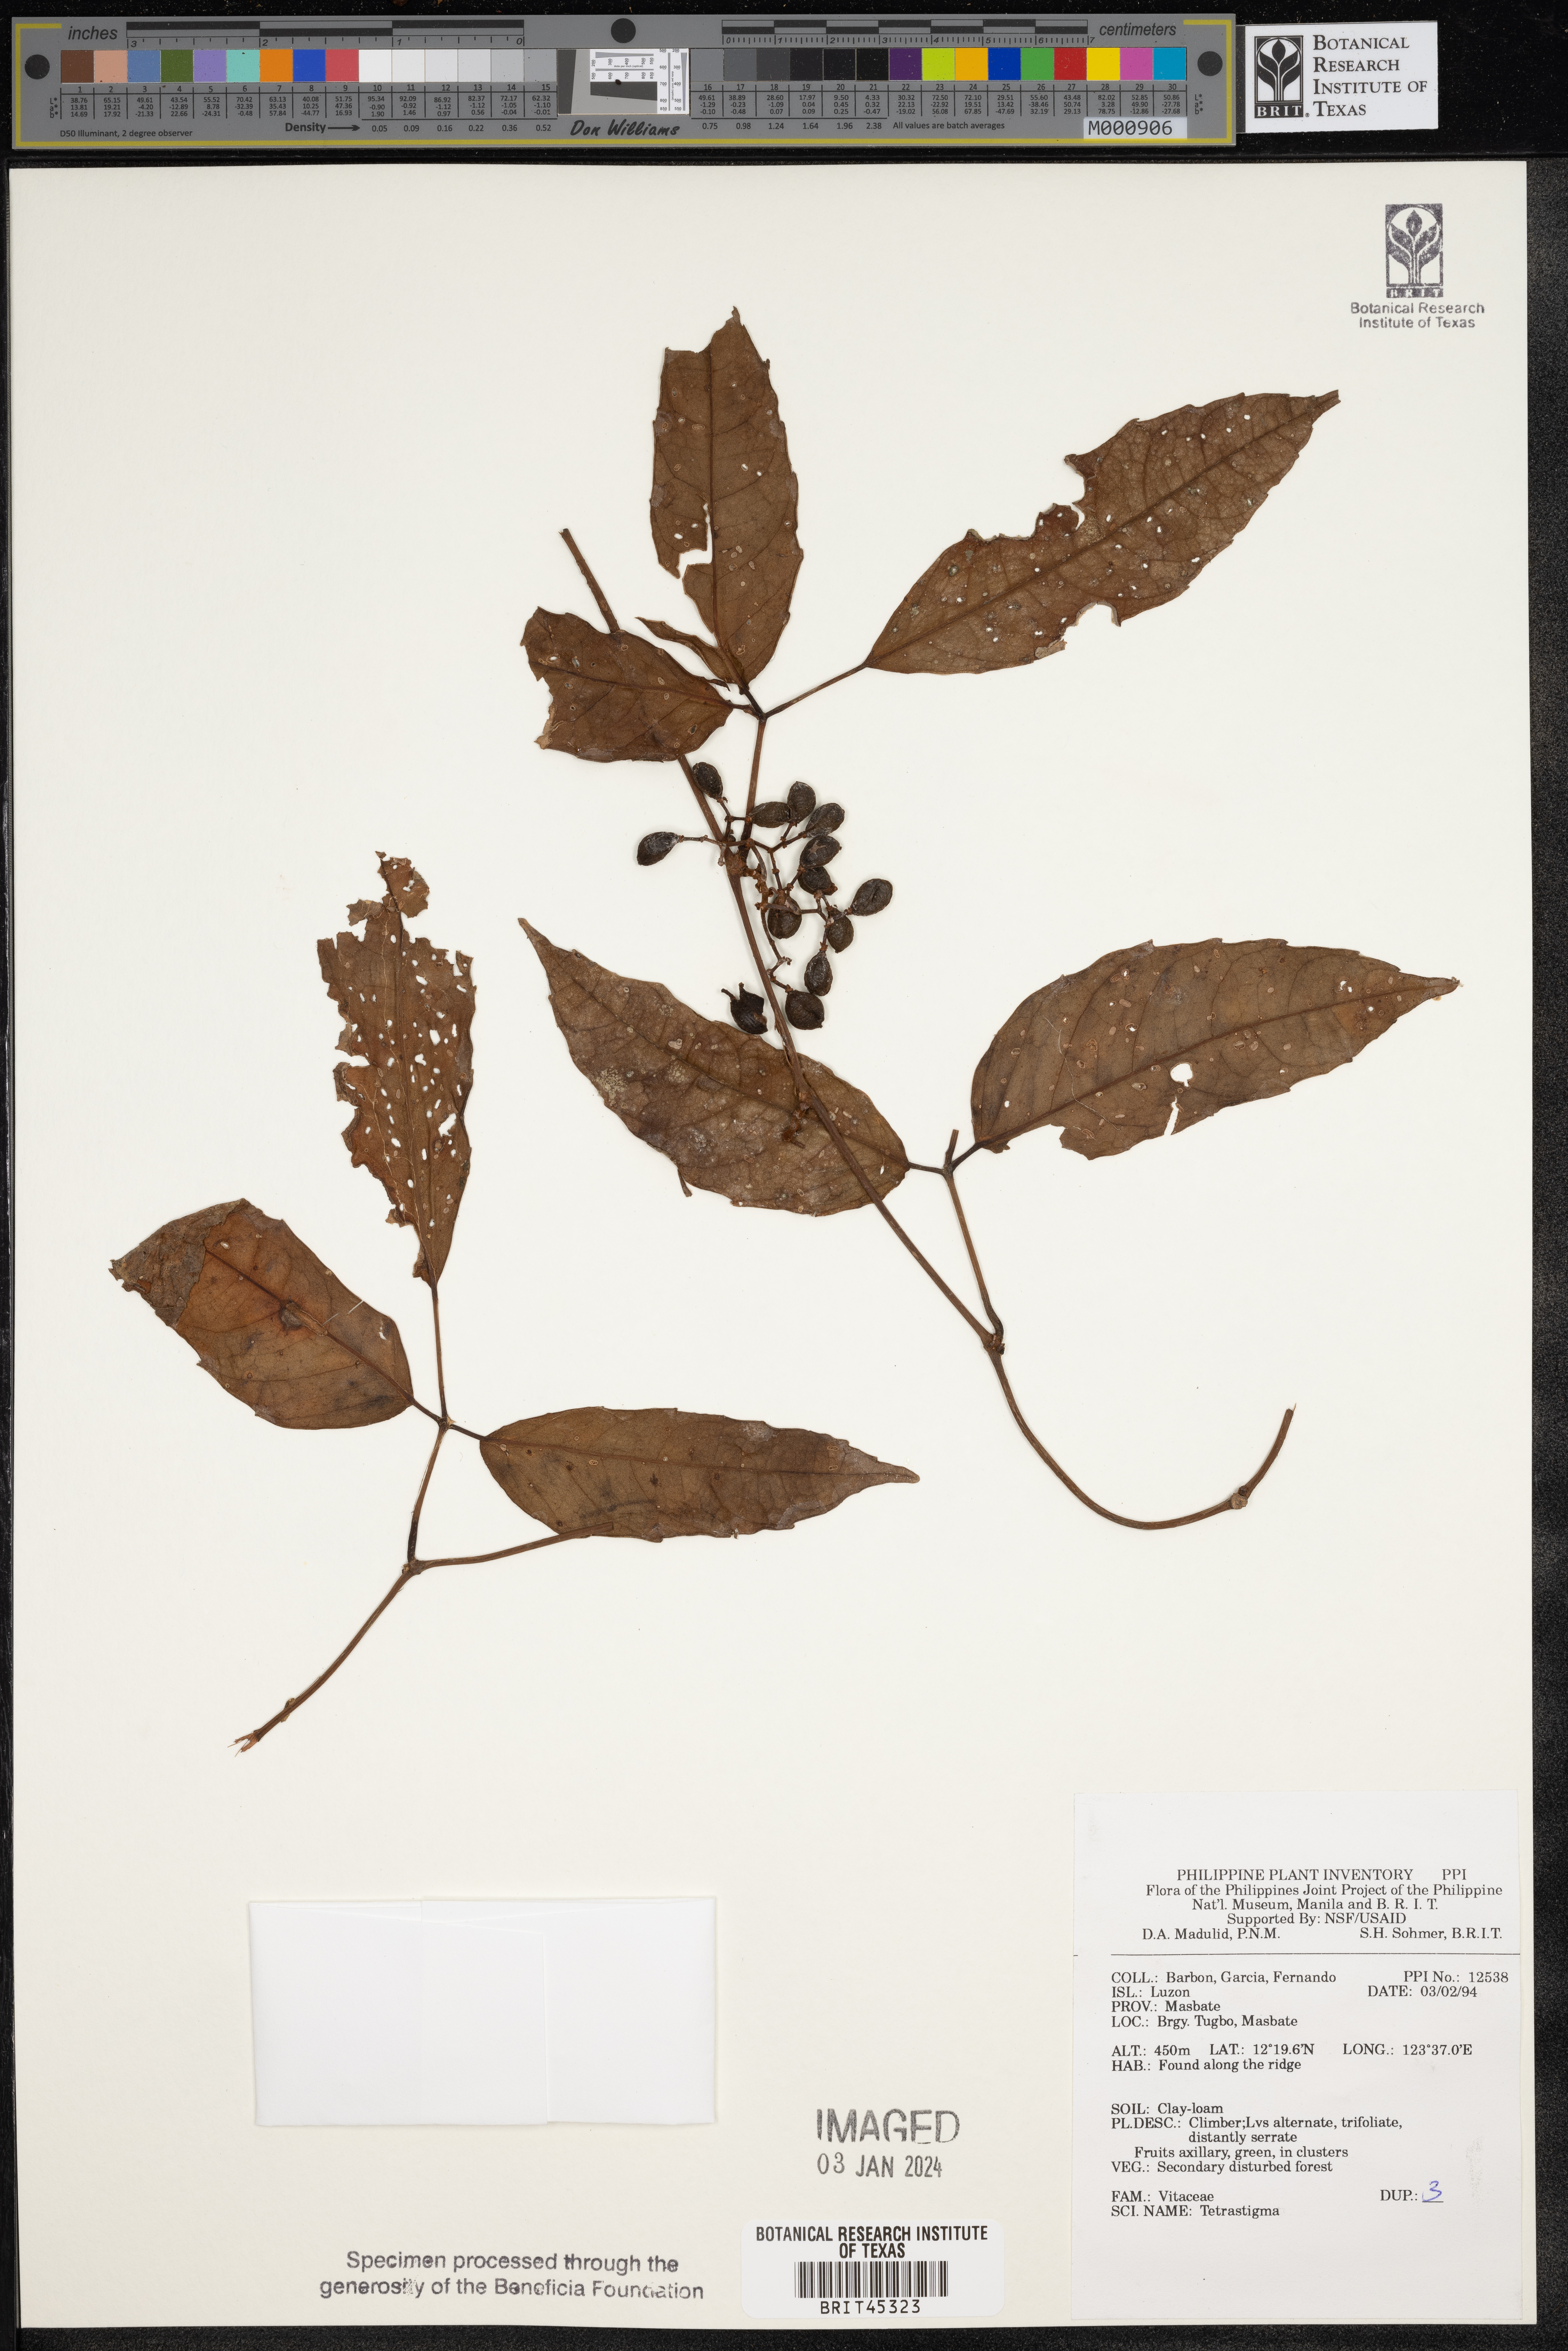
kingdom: Plantae
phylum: Tracheophyta
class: Magnoliopsida
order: Vitales
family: Vitaceae
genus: Tetrastigma
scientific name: Tetrastigma
